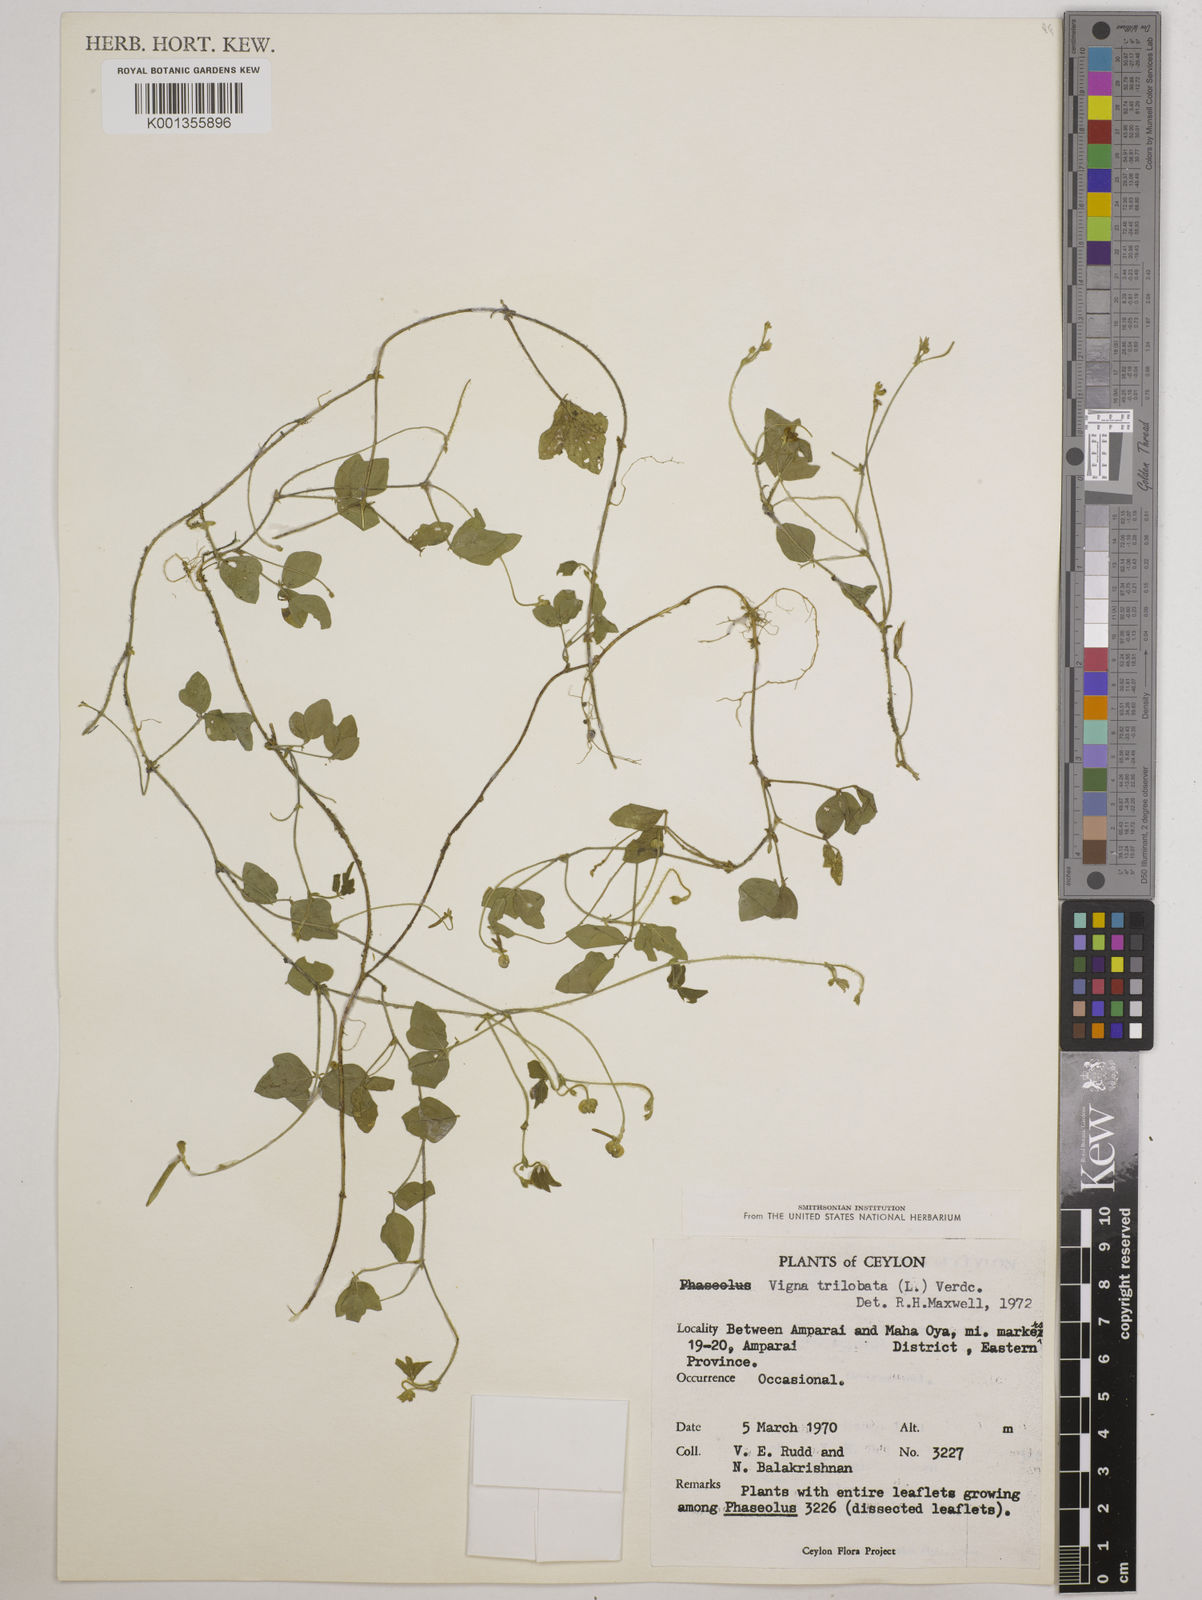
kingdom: Plantae
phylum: Tracheophyta
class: Magnoliopsida
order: Fabales
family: Fabaceae
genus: Vigna
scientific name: Vigna trilobata
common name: Jungli-bean
